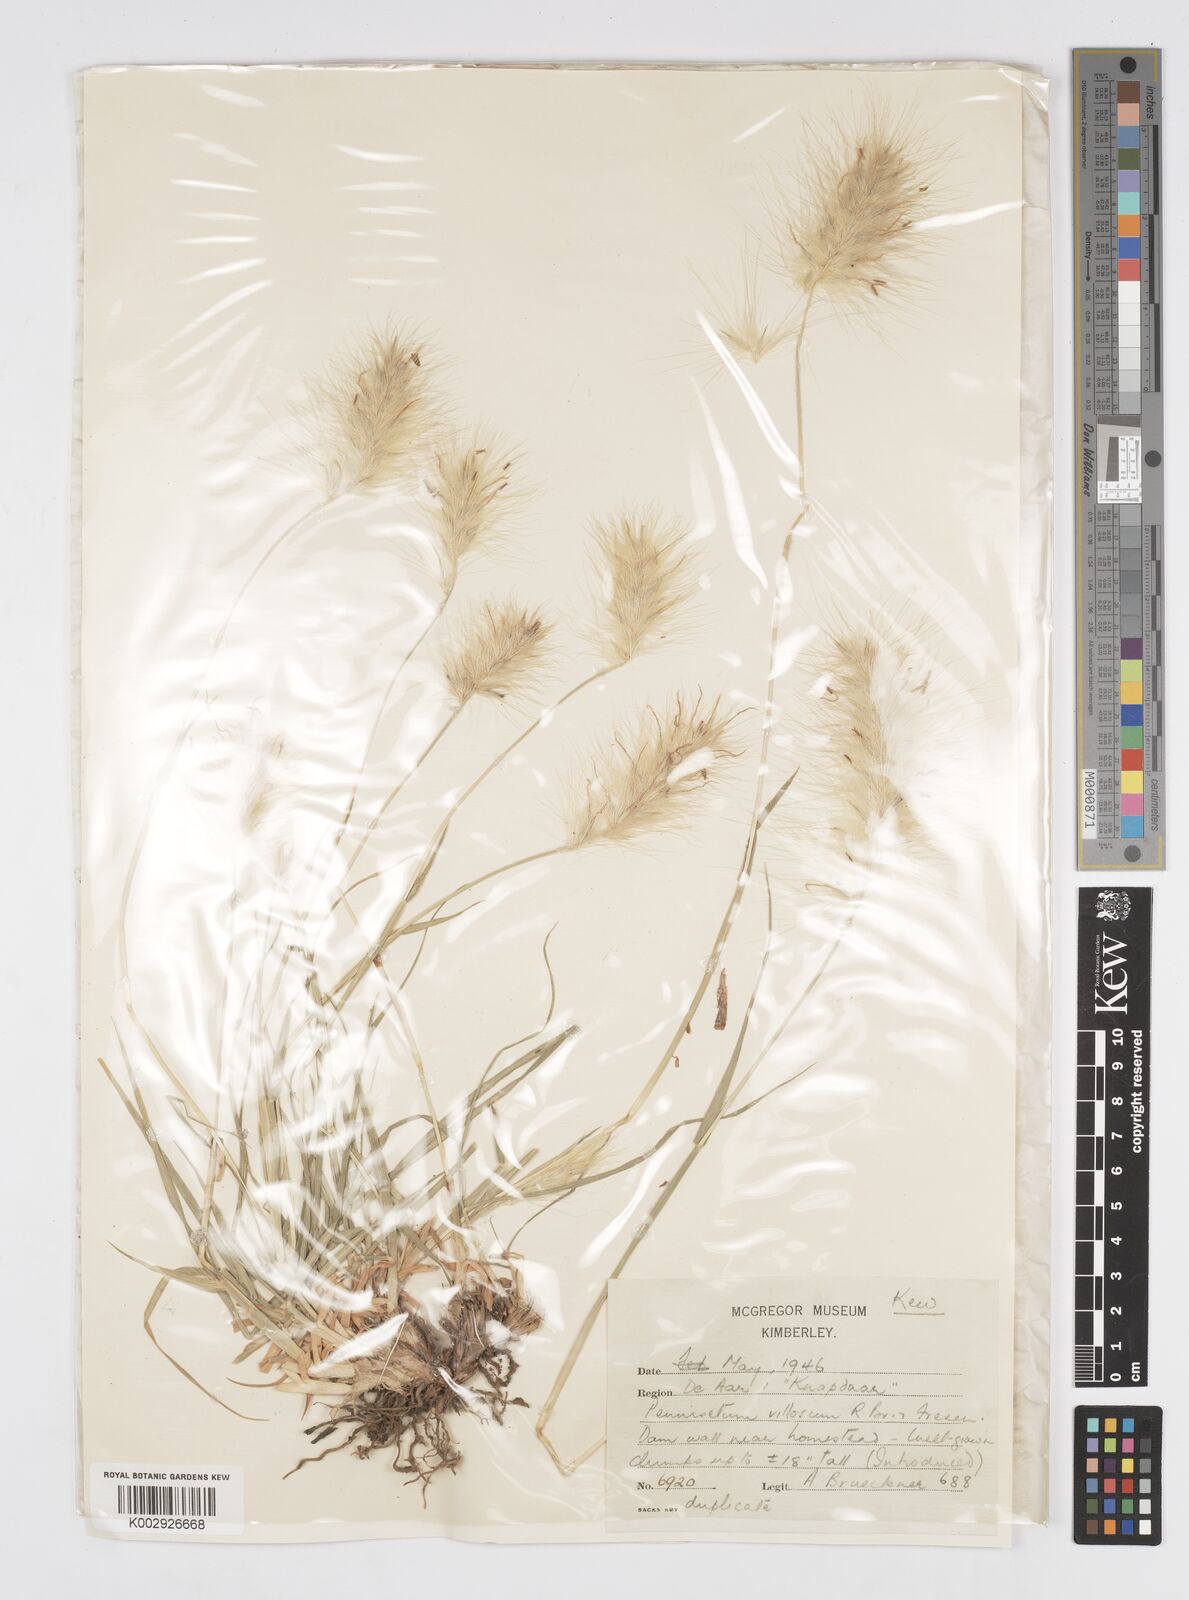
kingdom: Plantae
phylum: Tracheophyta
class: Liliopsida
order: Poales
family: Poaceae
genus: Cenchrus
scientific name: Cenchrus longisetus
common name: Feathertop
